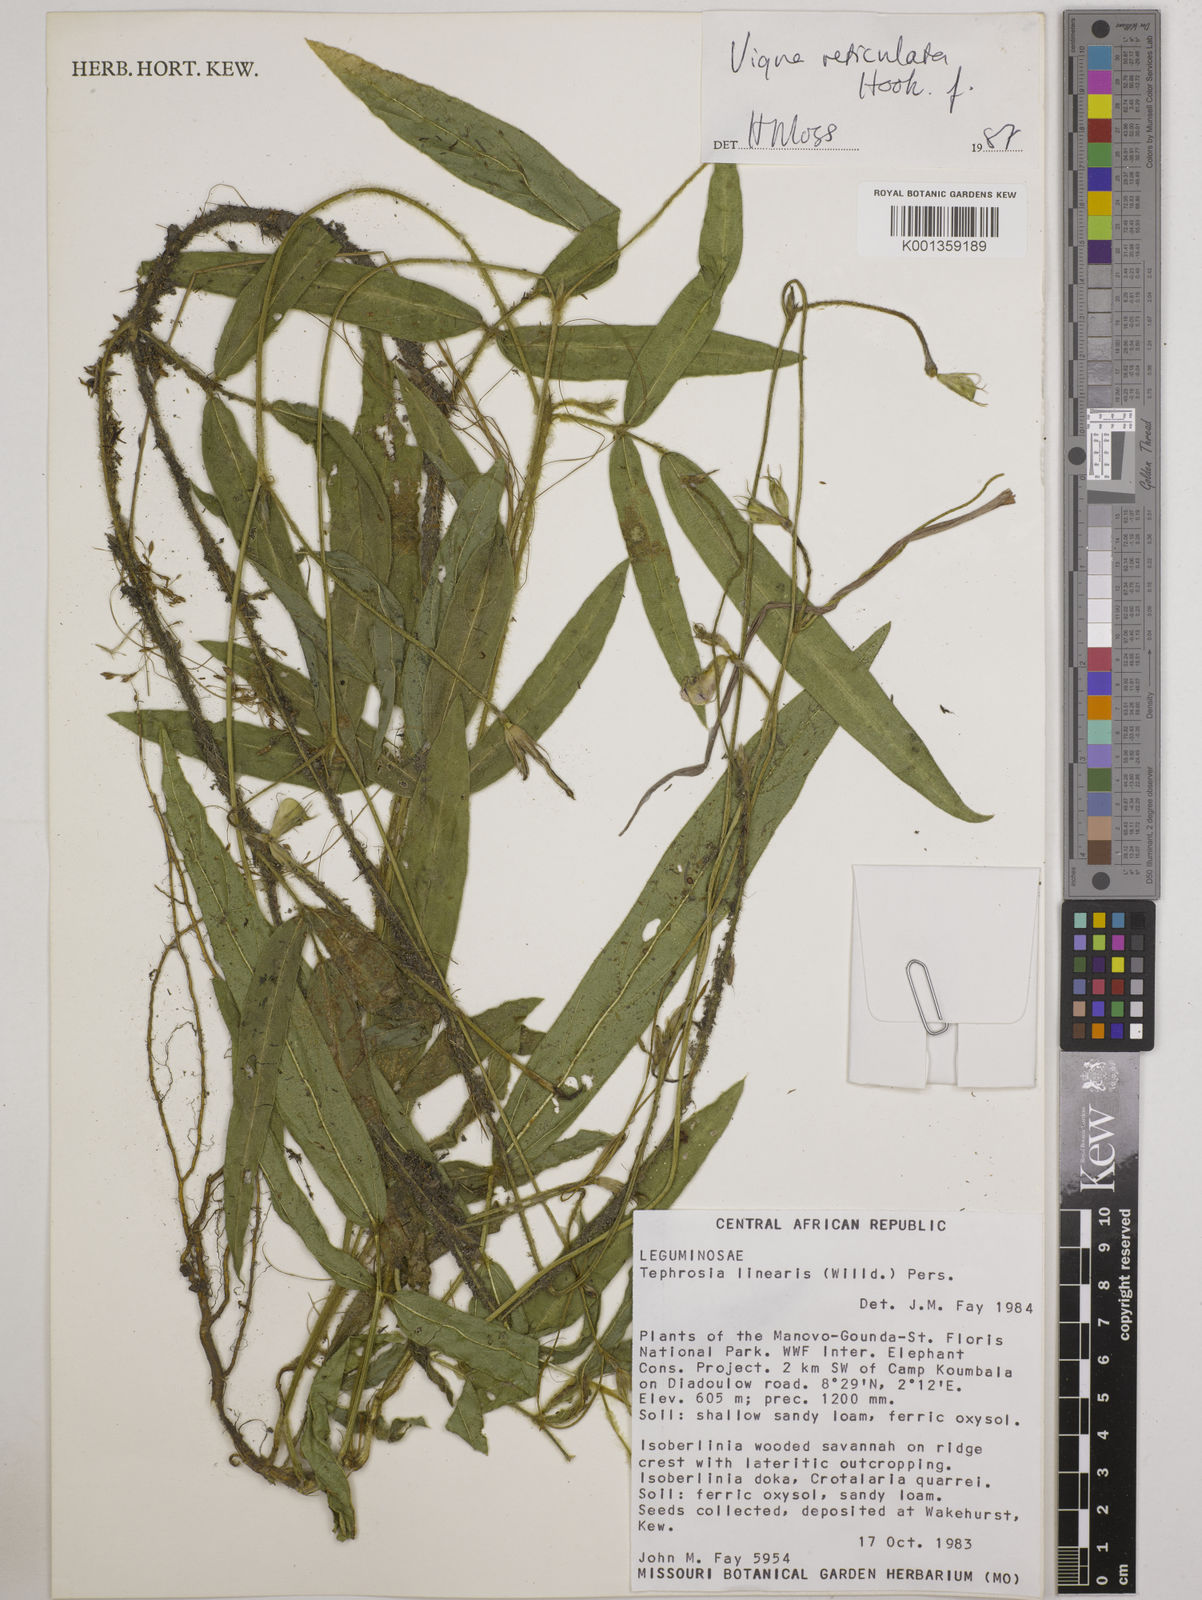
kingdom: Plantae
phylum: Tracheophyta
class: Magnoliopsida
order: Fabales
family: Fabaceae
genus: Vigna
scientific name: Vigna reticulata
